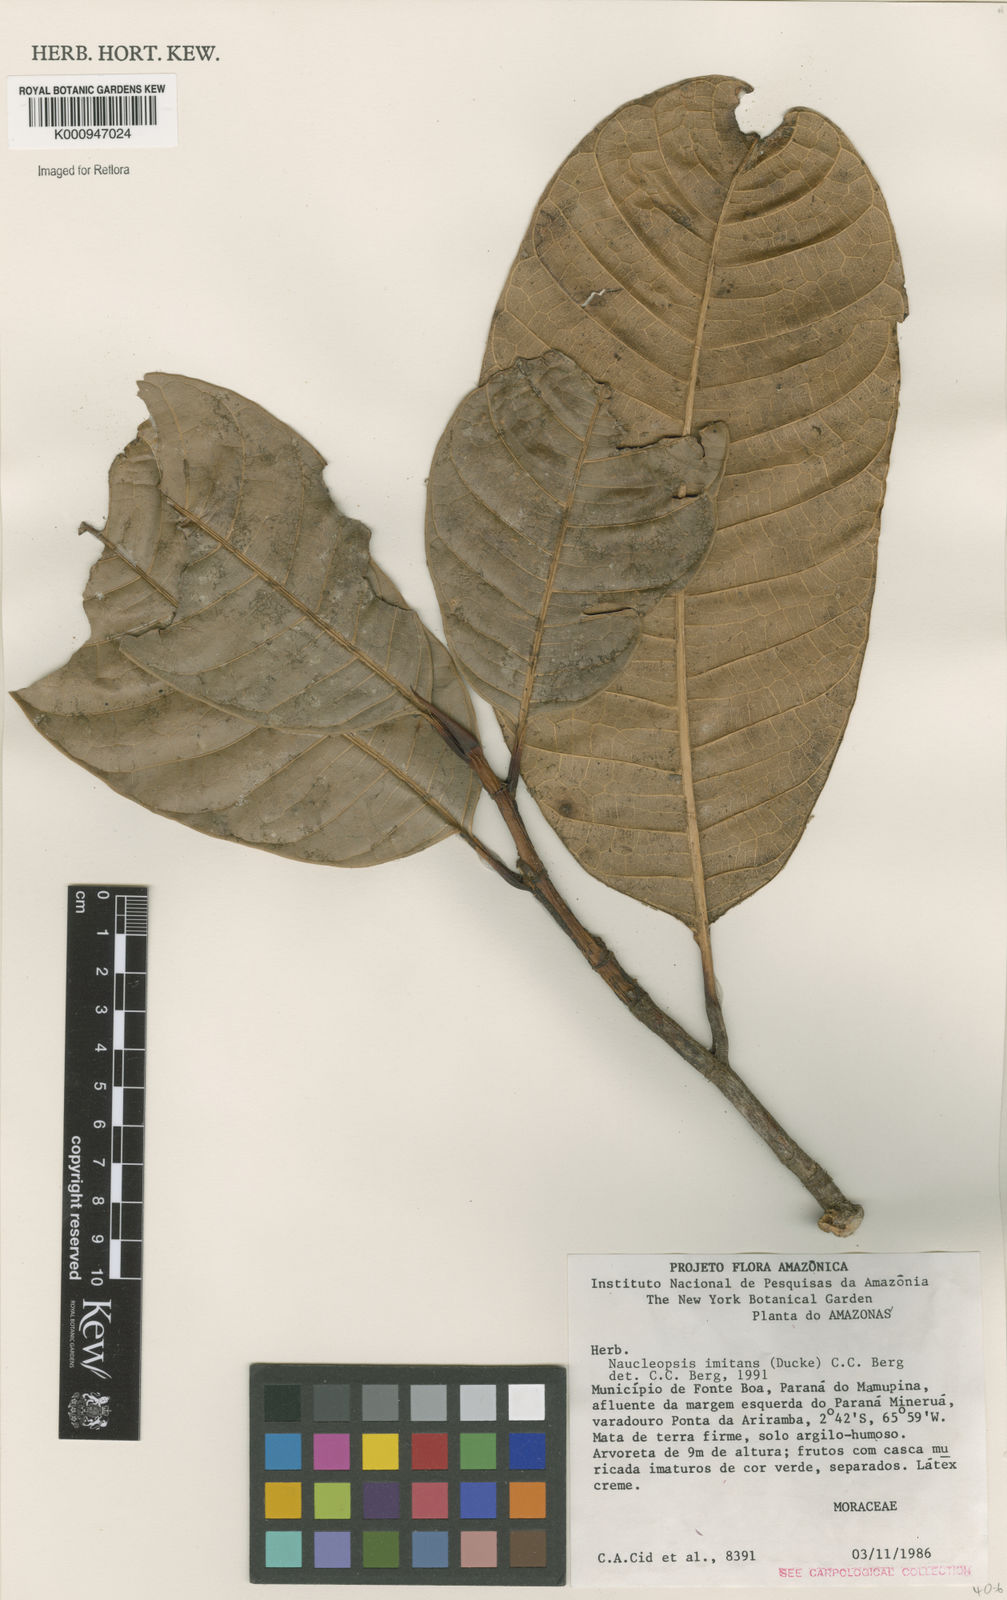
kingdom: Plantae
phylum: Tracheophyta
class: Magnoliopsida
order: Rosales
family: Moraceae
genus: Naucleopsis
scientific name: Naucleopsis imitans
